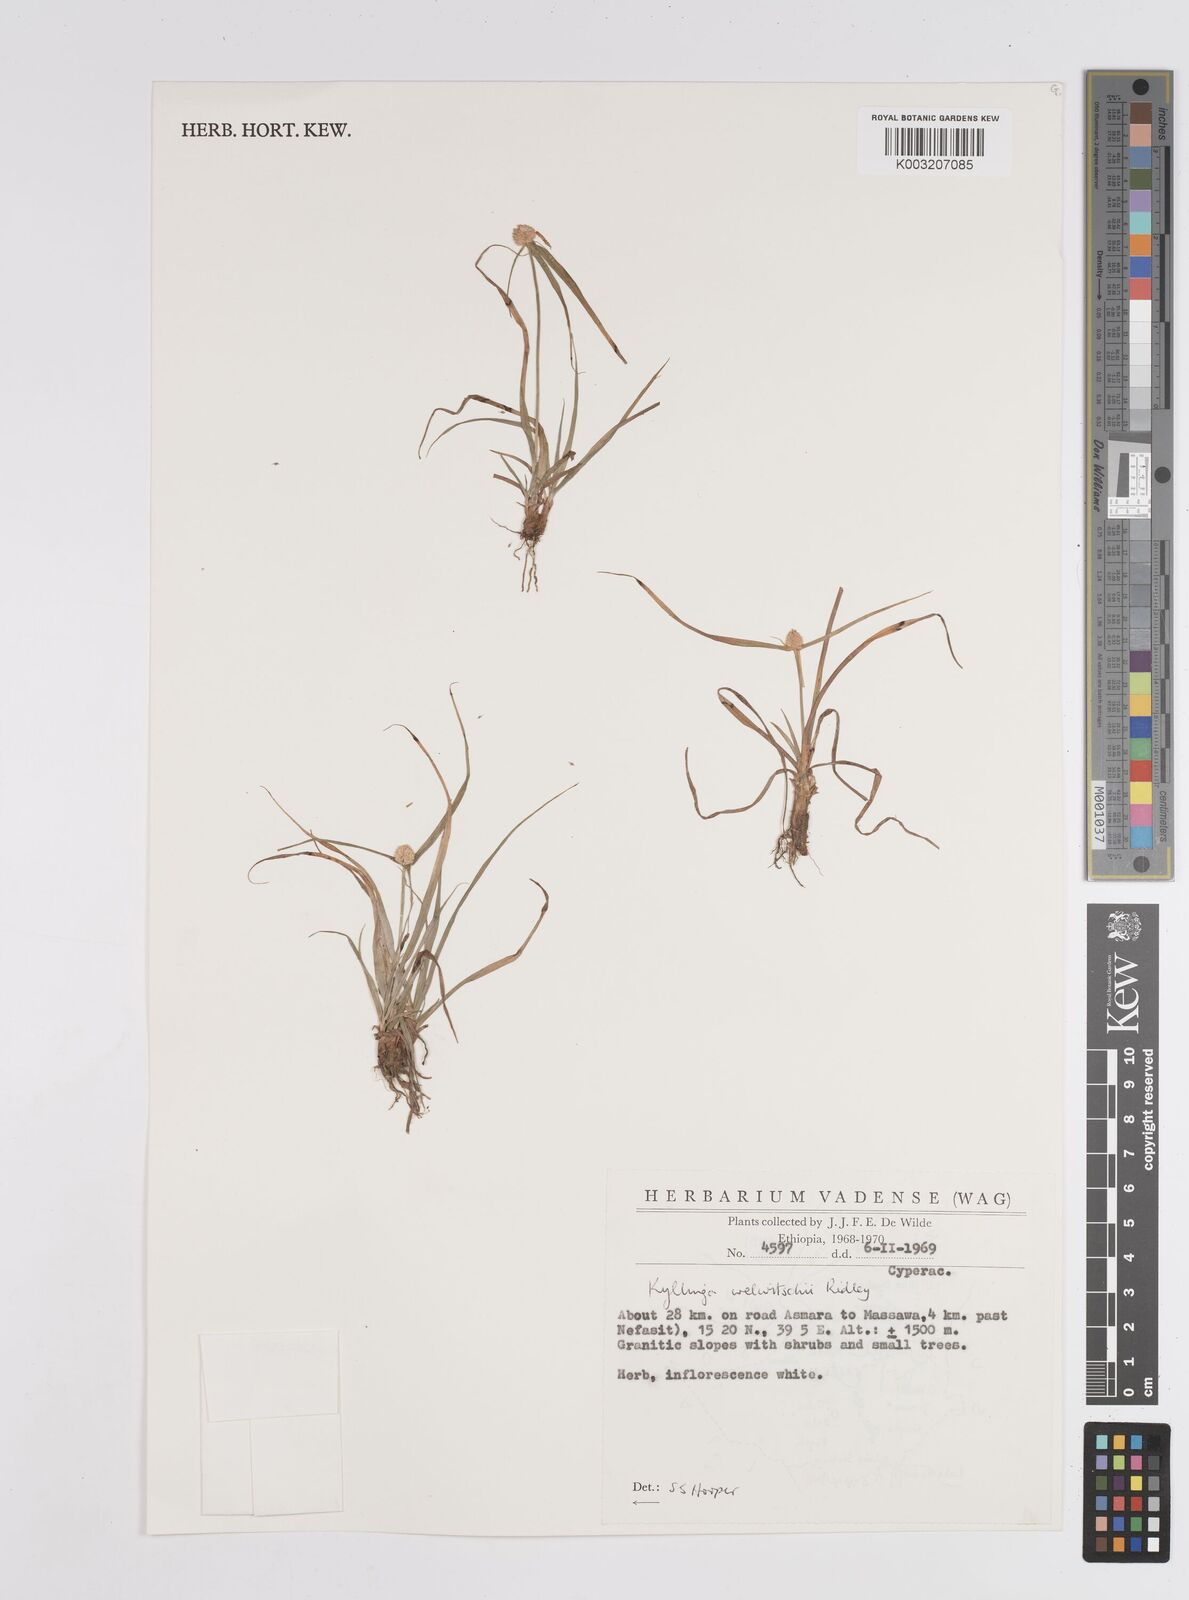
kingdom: Plantae
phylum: Tracheophyta
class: Liliopsida
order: Poales
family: Cyperaceae
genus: Cyperus
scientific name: Cyperus welwitschii
